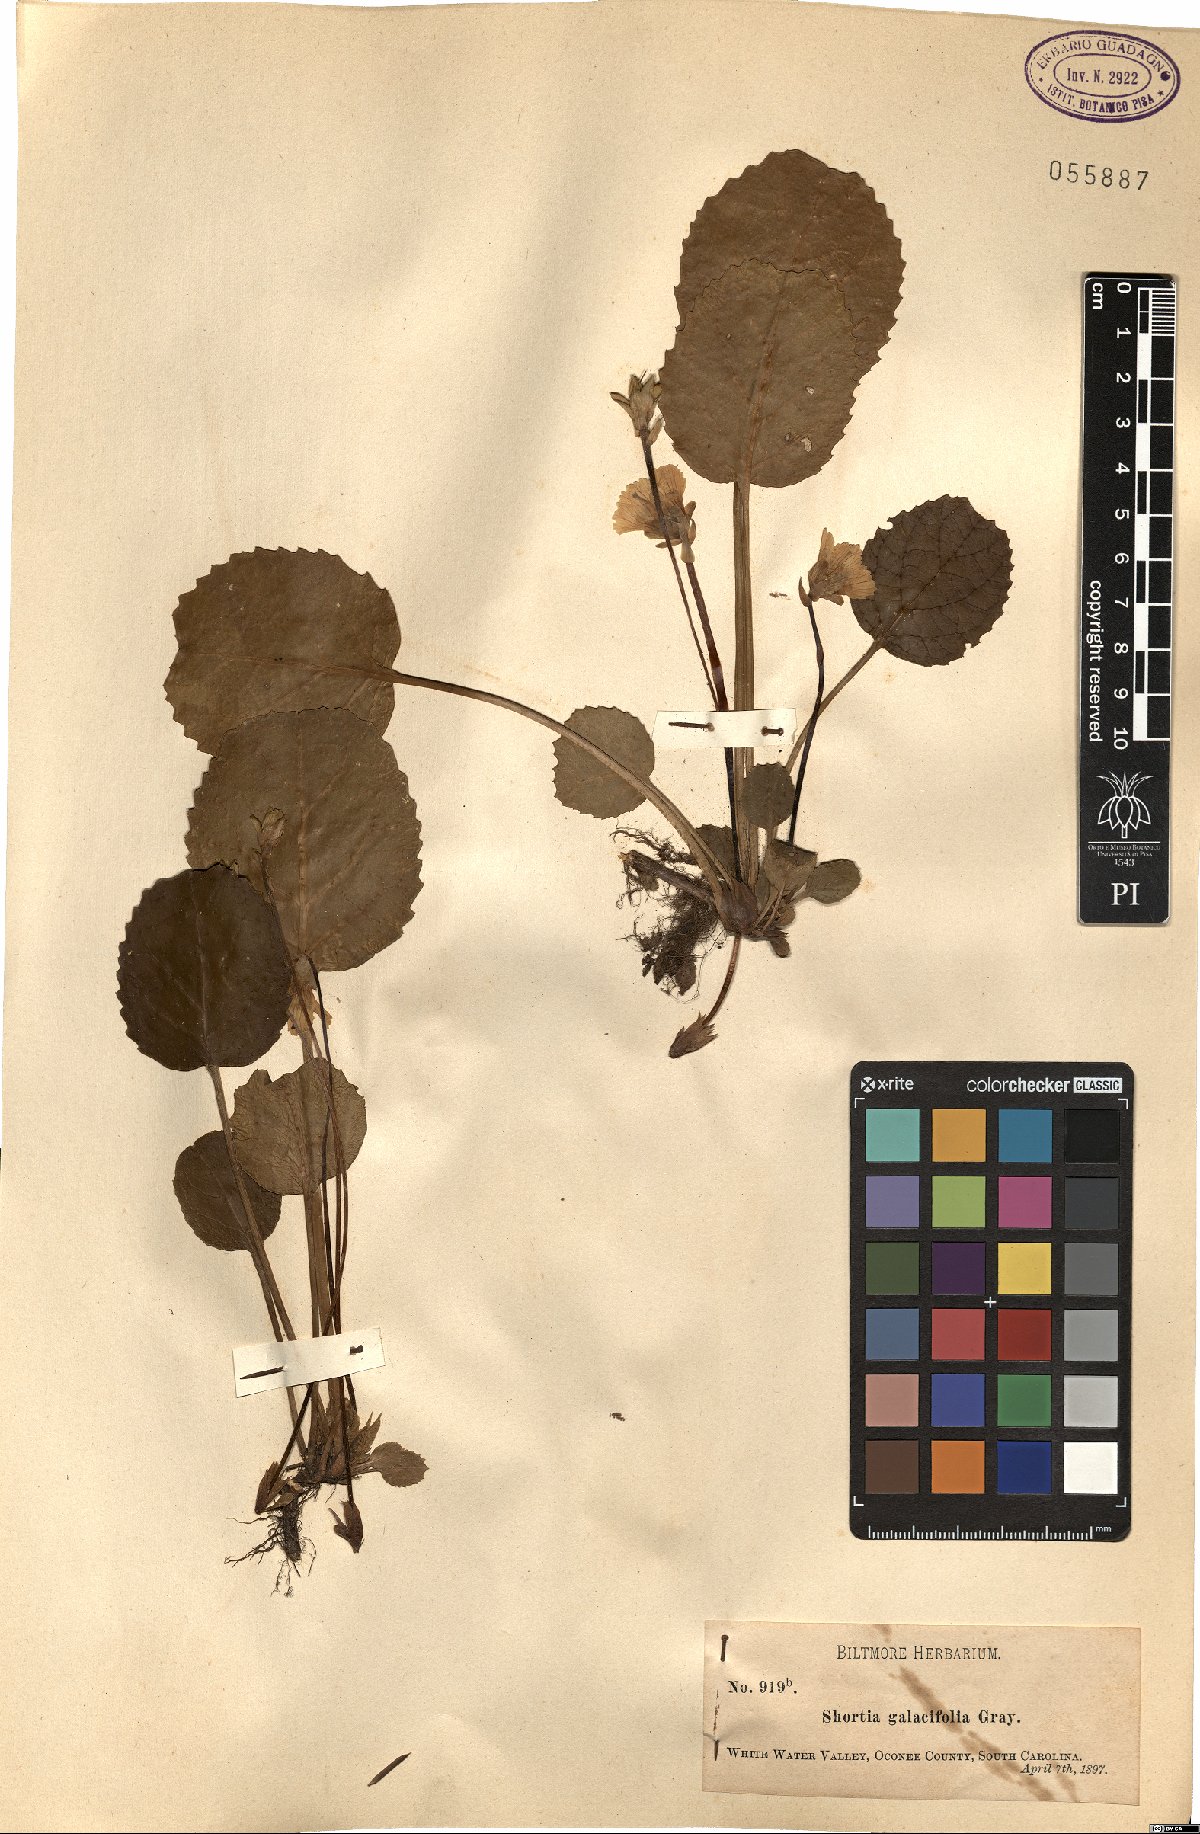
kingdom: Plantae
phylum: Tracheophyta
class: Magnoliopsida
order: Ericales
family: Diapensiaceae
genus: Shortia
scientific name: Shortia galacifolia
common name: Shortia
